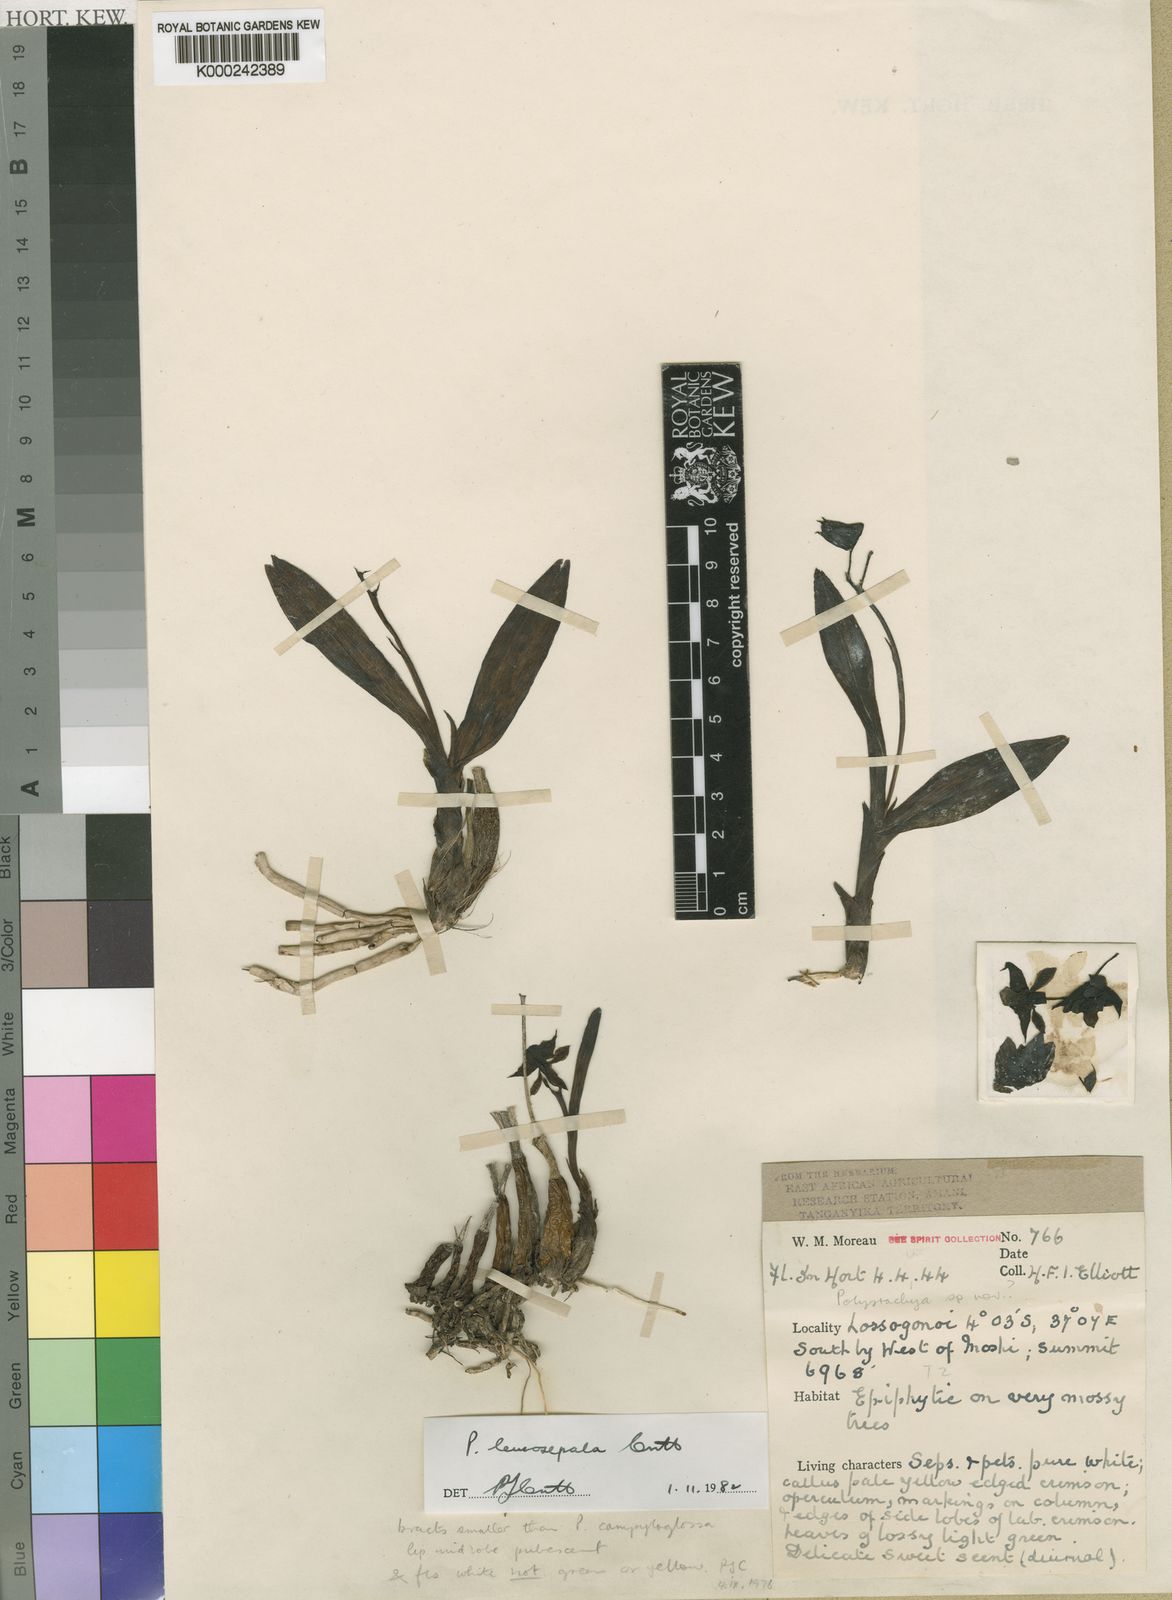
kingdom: Plantae
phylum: Tracheophyta
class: Liliopsida
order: Asparagales
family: Orchidaceae
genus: Polystachya
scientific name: Polystachya leucosepala
